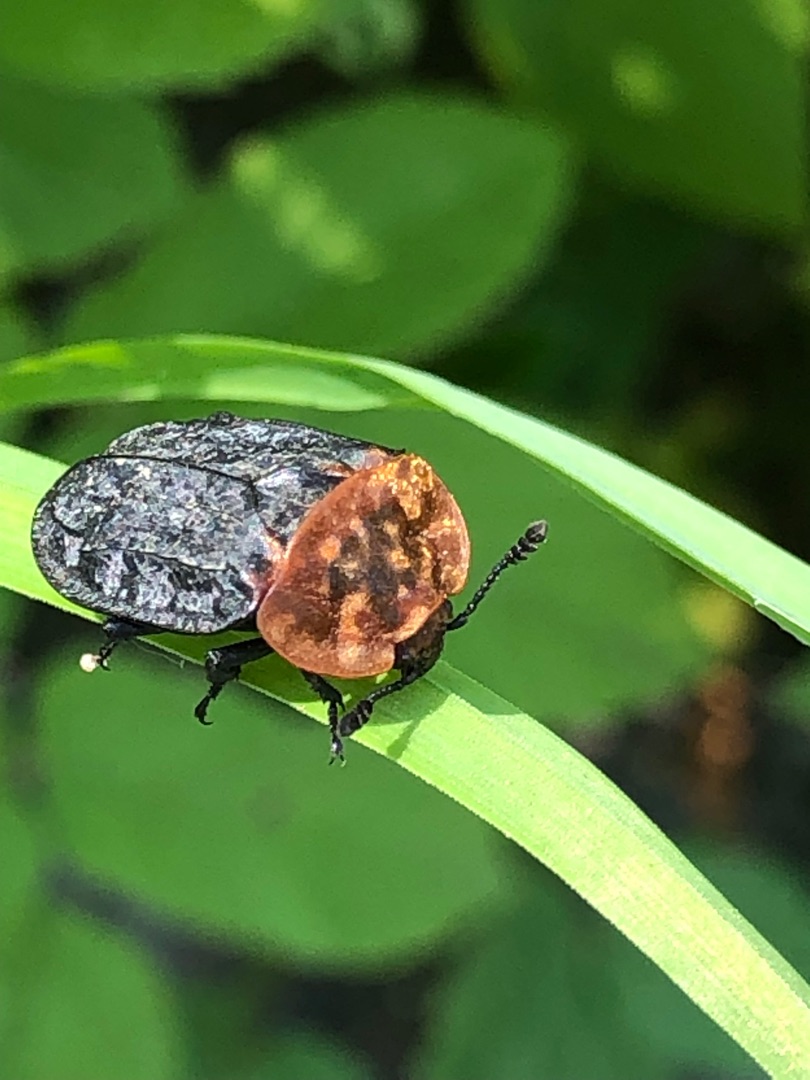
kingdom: Animalia
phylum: Arthropoda
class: Insecta
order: Coleoptera
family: Staphylinidae
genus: Oiceoptoma
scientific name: Oiceoptoma thoracicum
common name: Rødbrystet ådselbille
